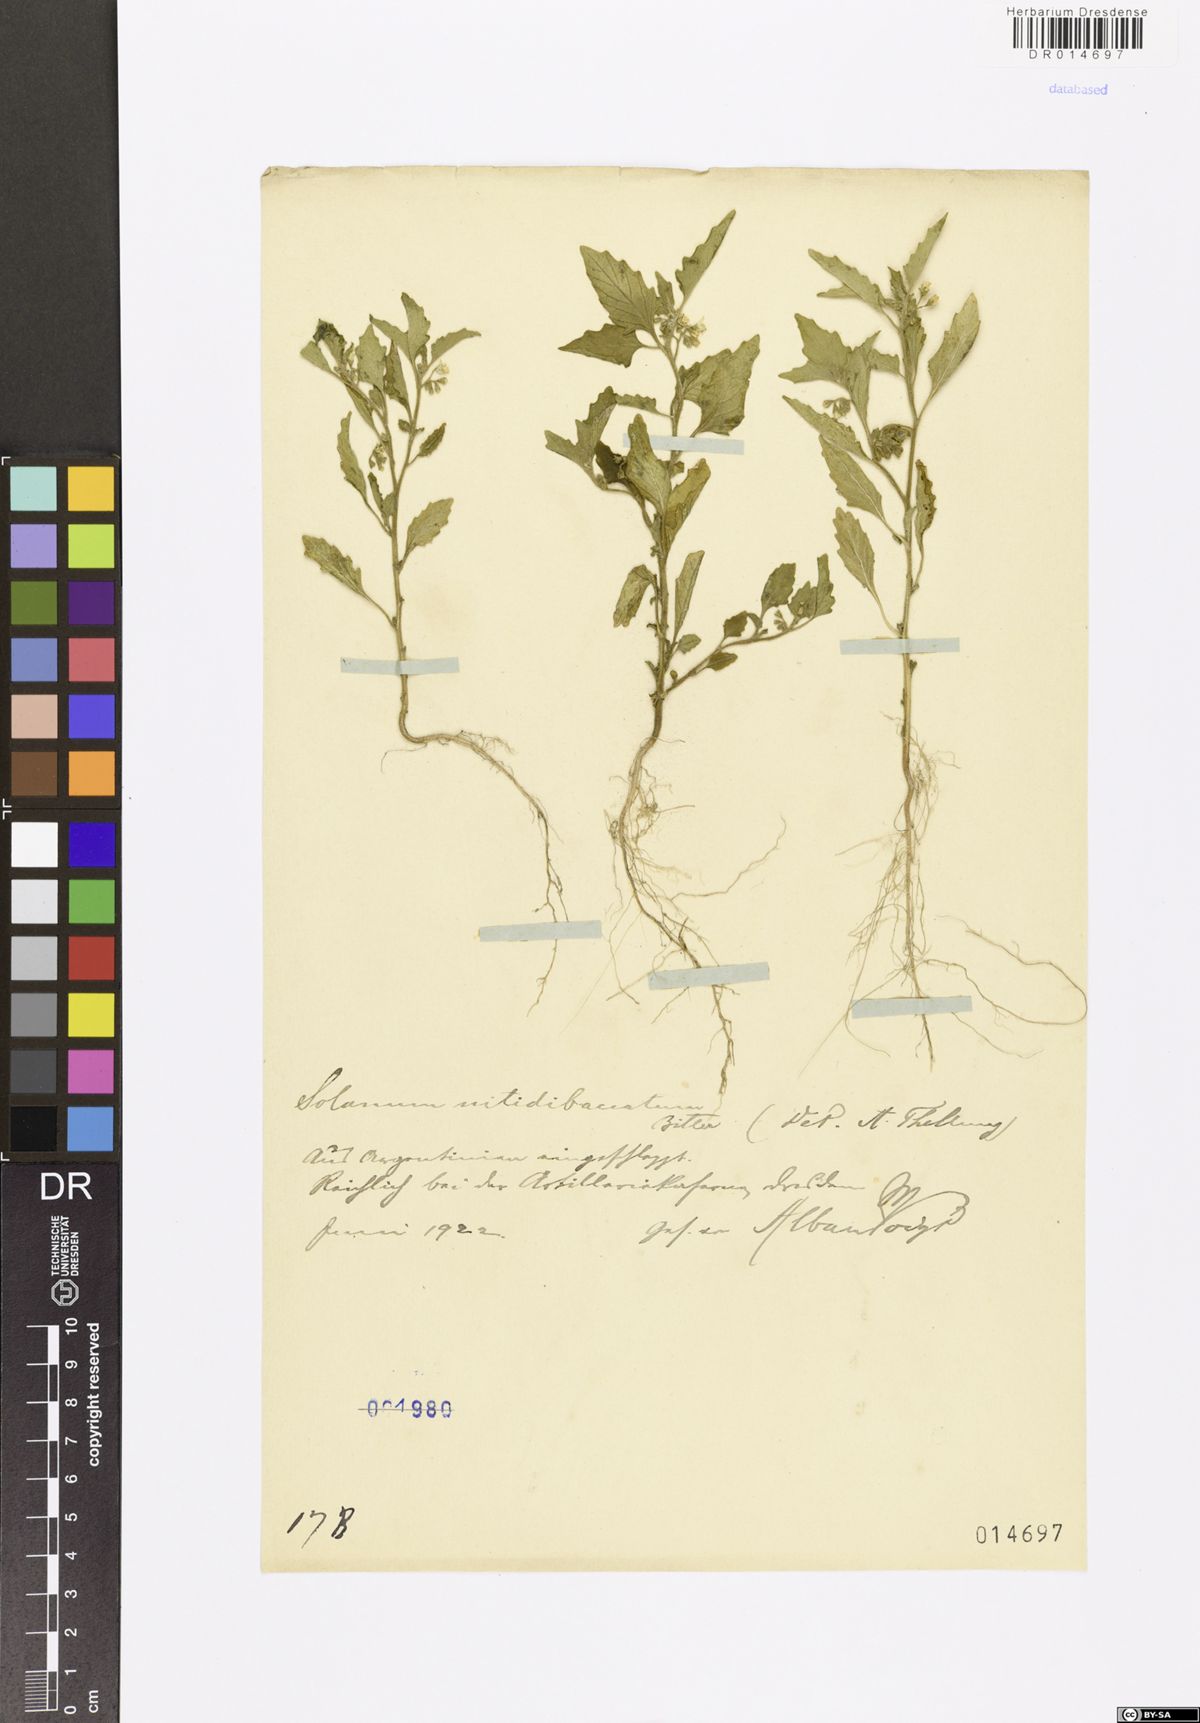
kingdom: Plantae
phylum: Tracheophyta
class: Magnoliopsida
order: Solanales
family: Solanaceae
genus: Solanum
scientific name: Solanum nitidibaccatum
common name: Hairy nightshade
